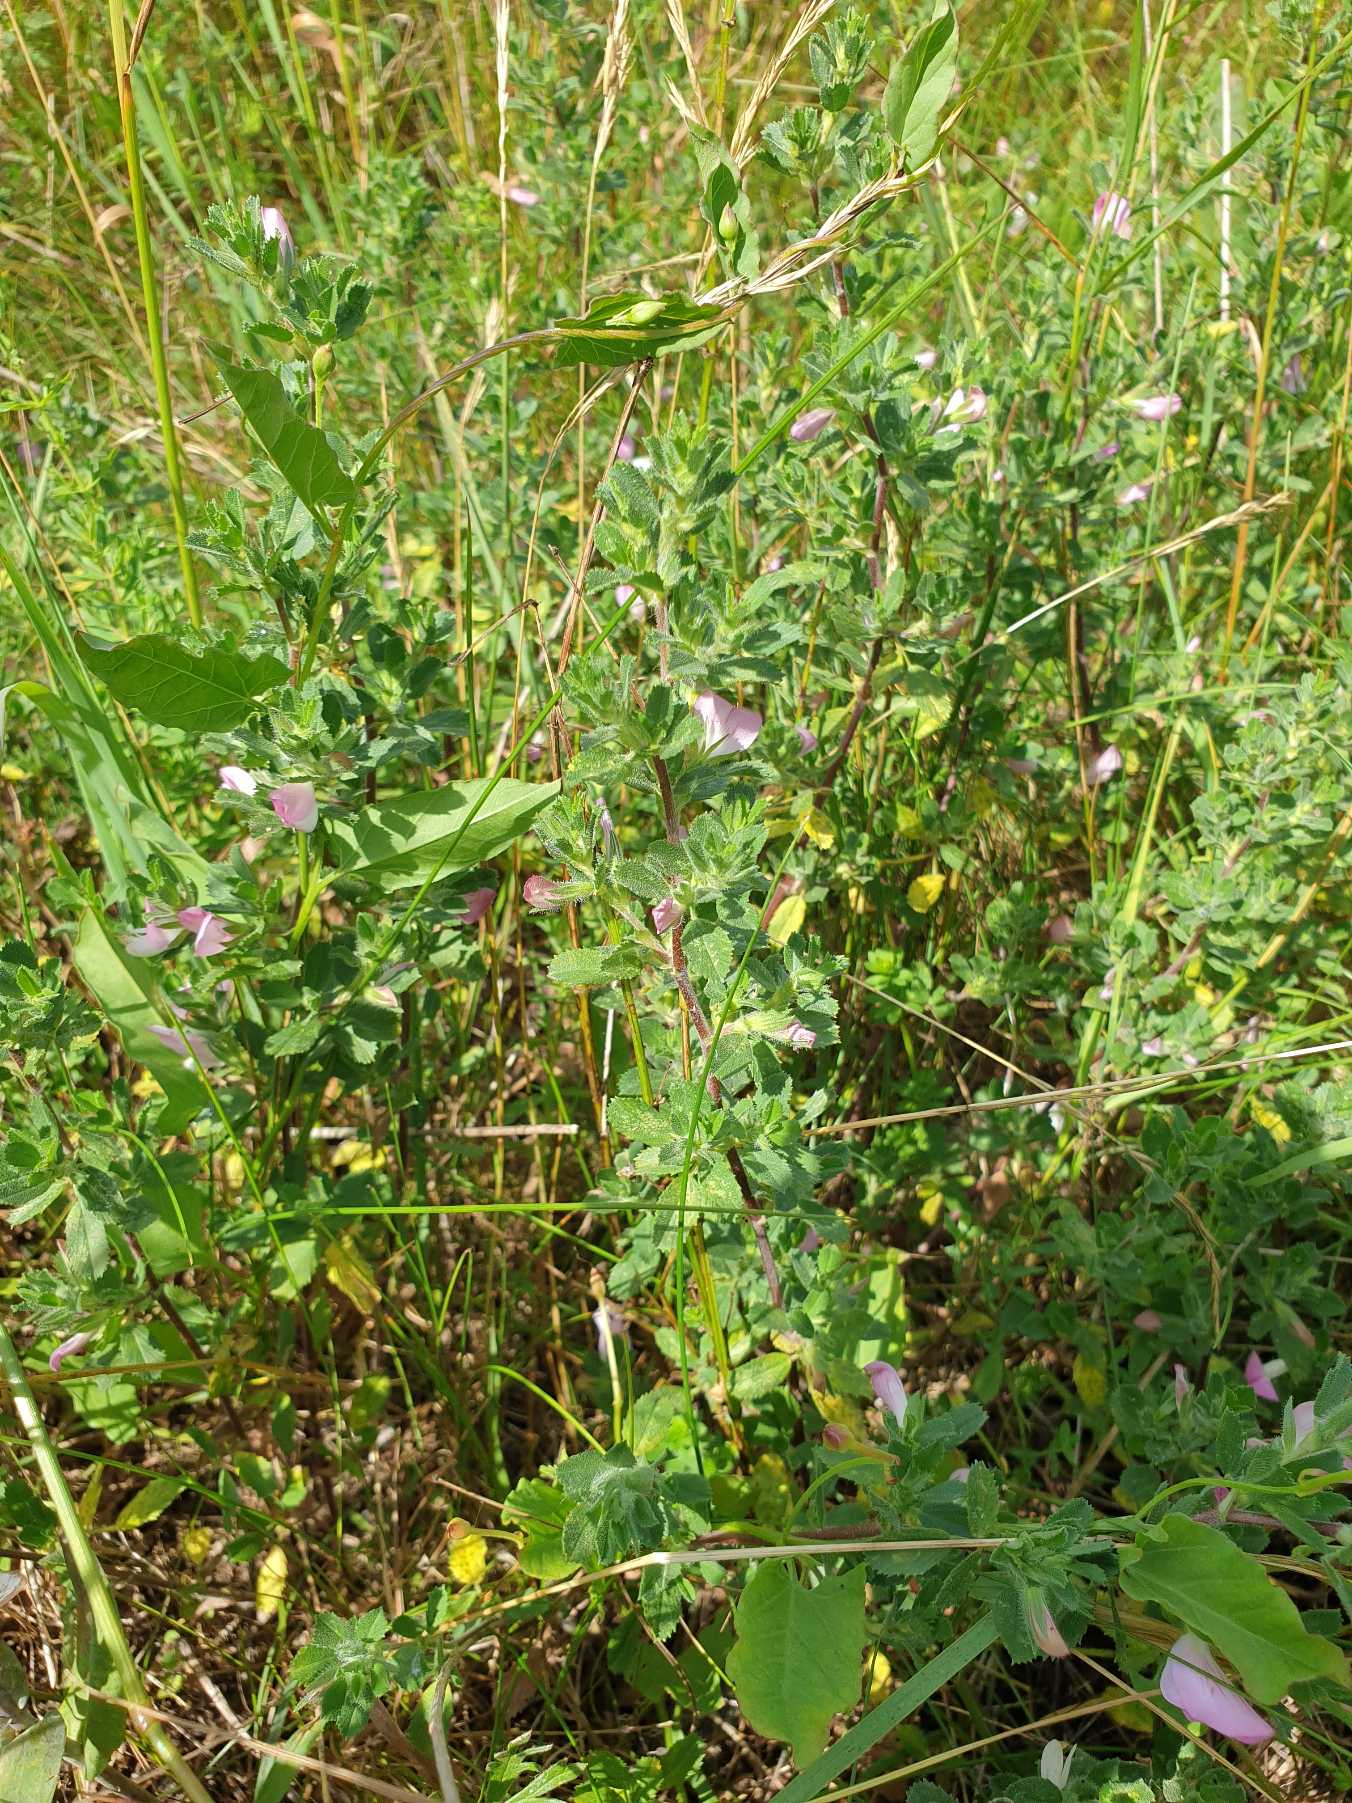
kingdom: Plantae
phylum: Tracheophyta
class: Magnoliopsida
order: Fabales
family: Fabaceae
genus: Ononis
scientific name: Ononis spinosa
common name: Mark-krageklo
